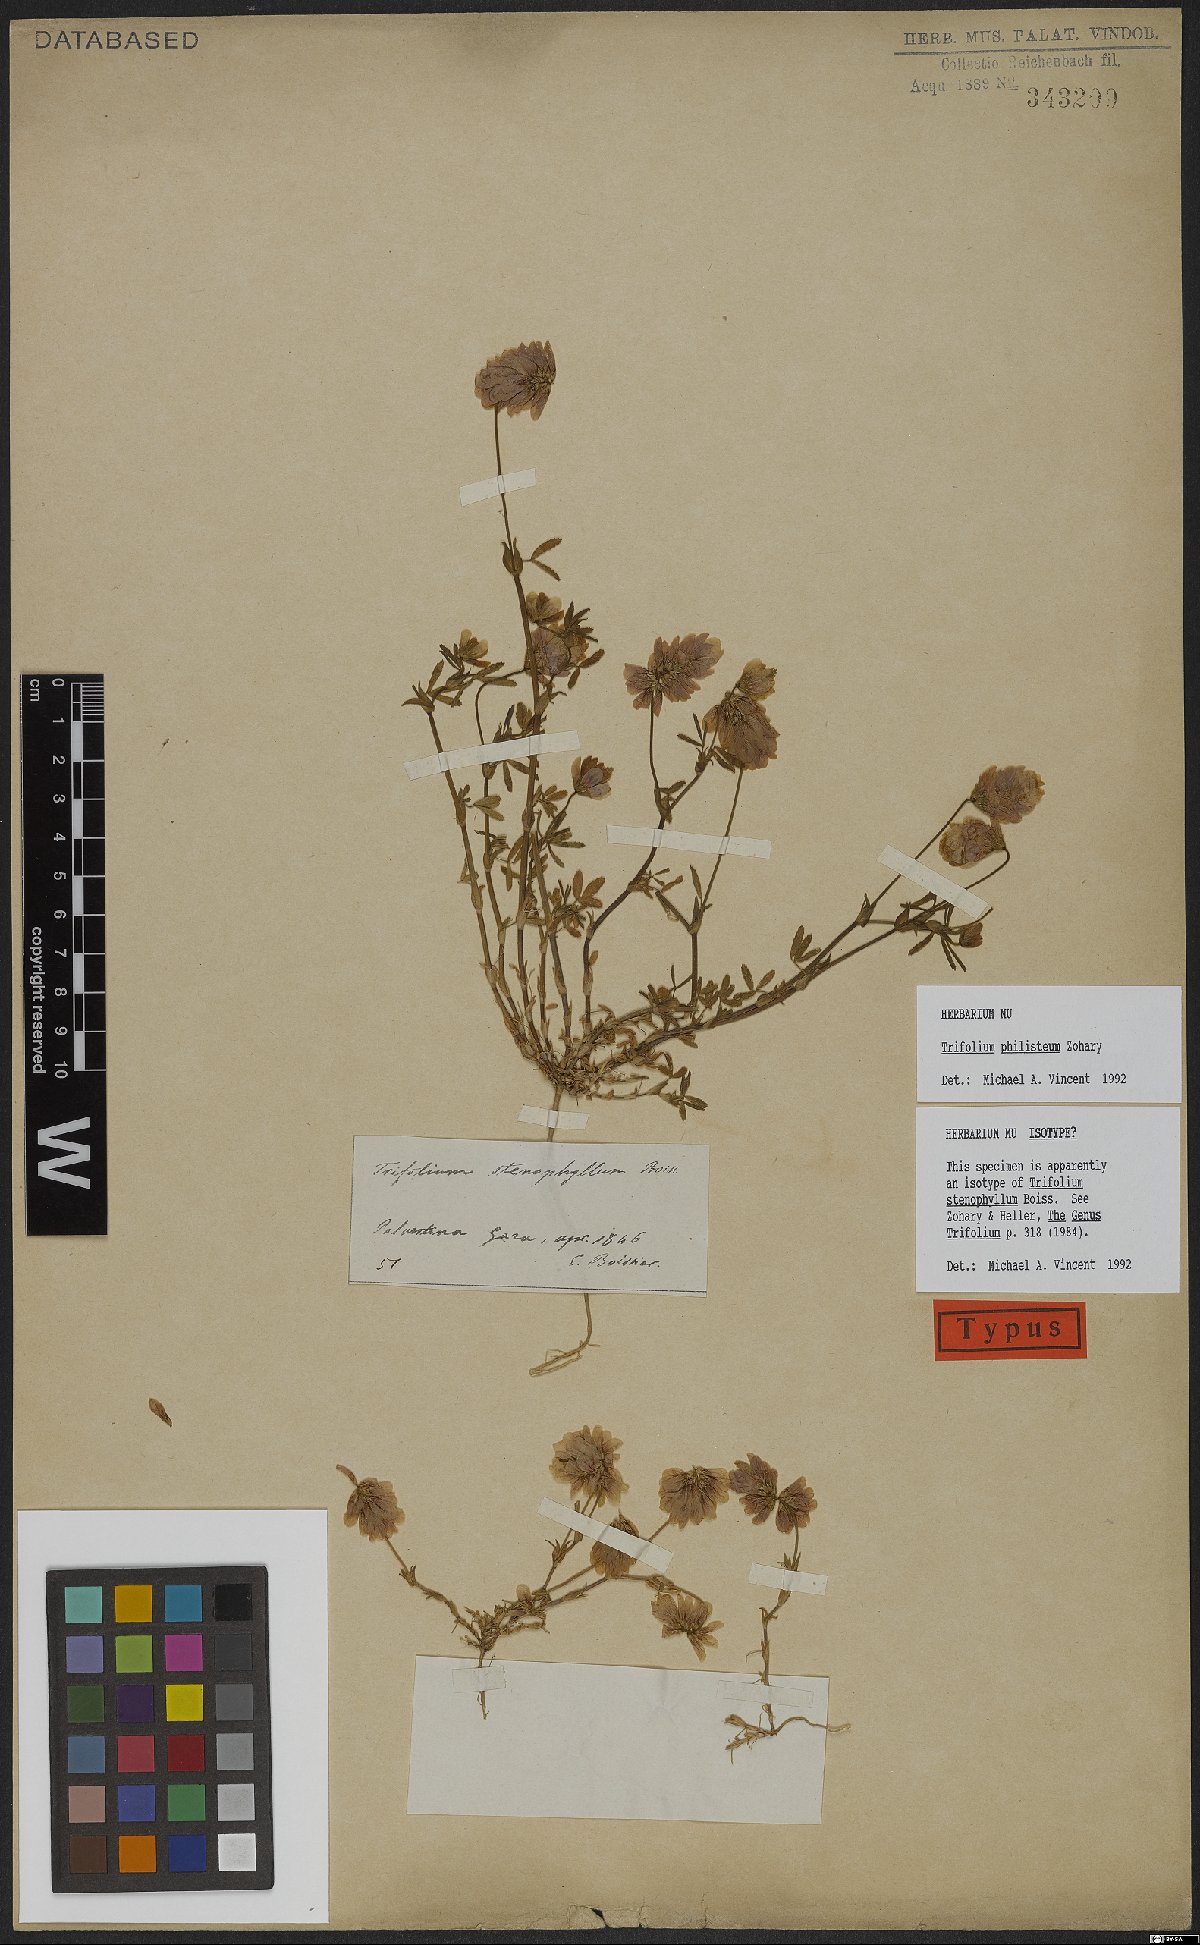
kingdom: Plantae
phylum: Tracheophyta
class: Magnoliopsida
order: Fabales
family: Fabaceae
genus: Trifolium
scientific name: Trifolium philistaeum
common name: Palestine clover
